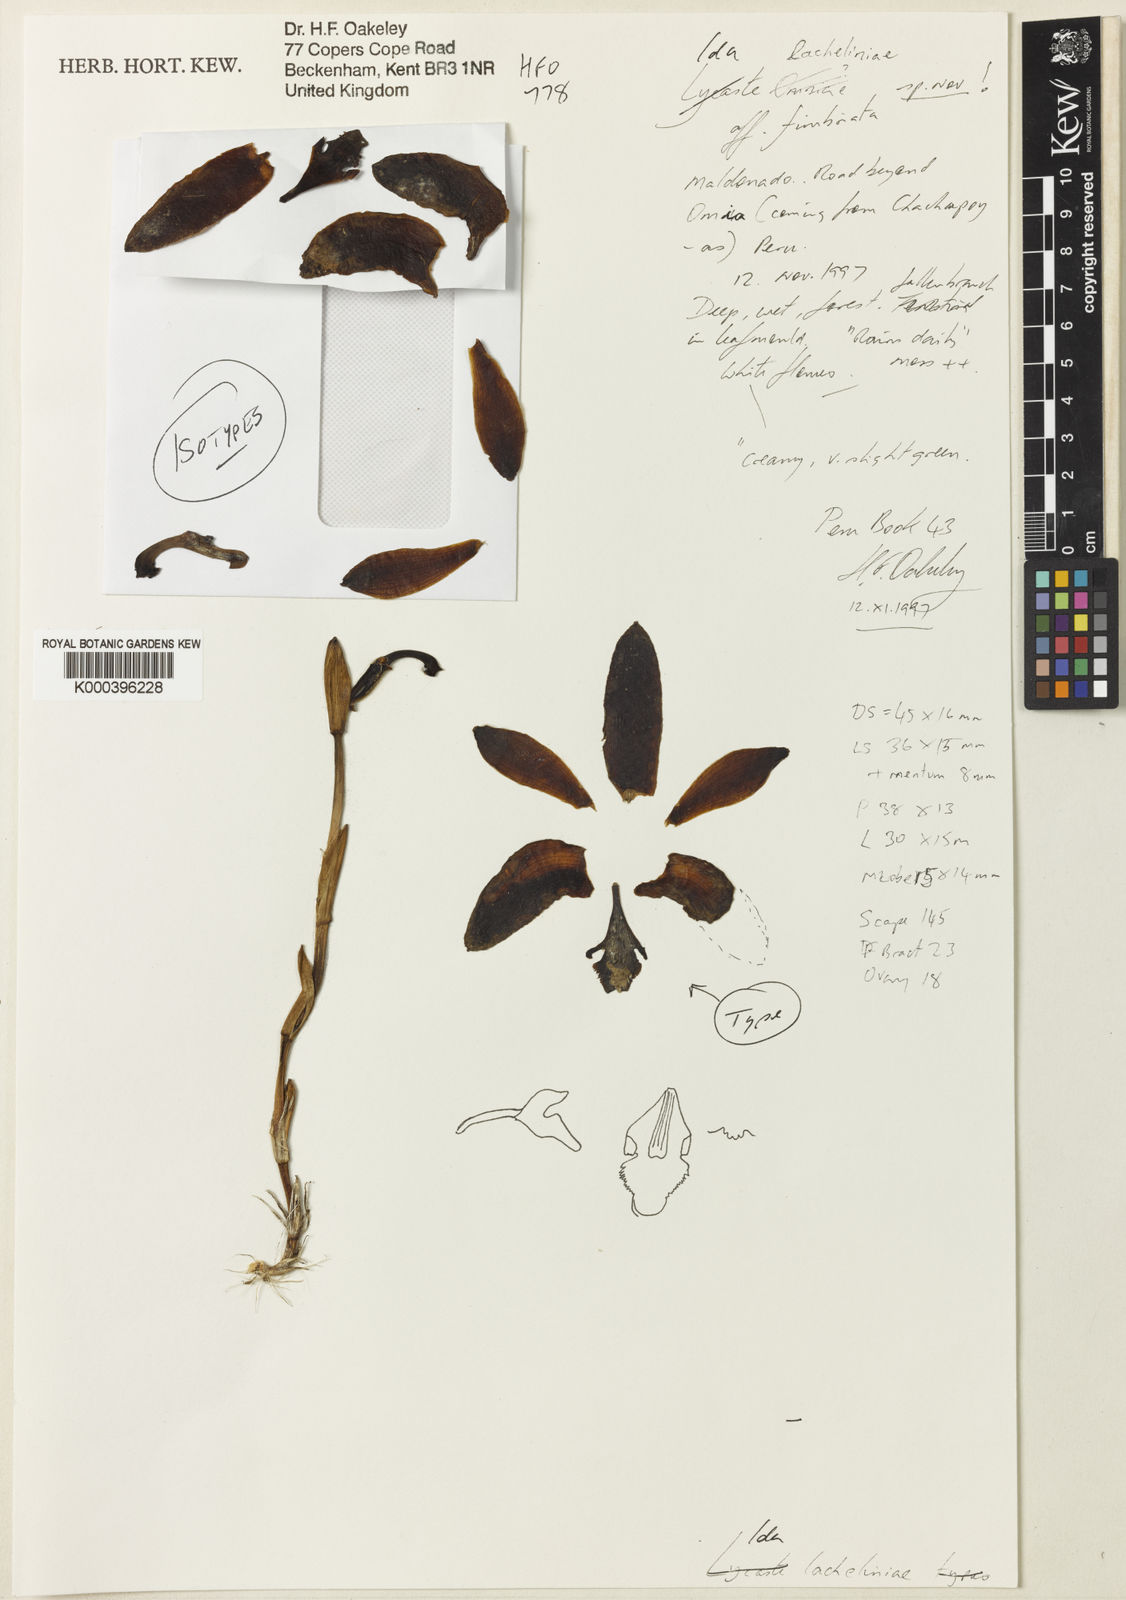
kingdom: Plantae
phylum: Tracheophyta
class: Liliopsida
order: Asparagales
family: Orchidaceae
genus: Ida
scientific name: Ida lacheliniae
